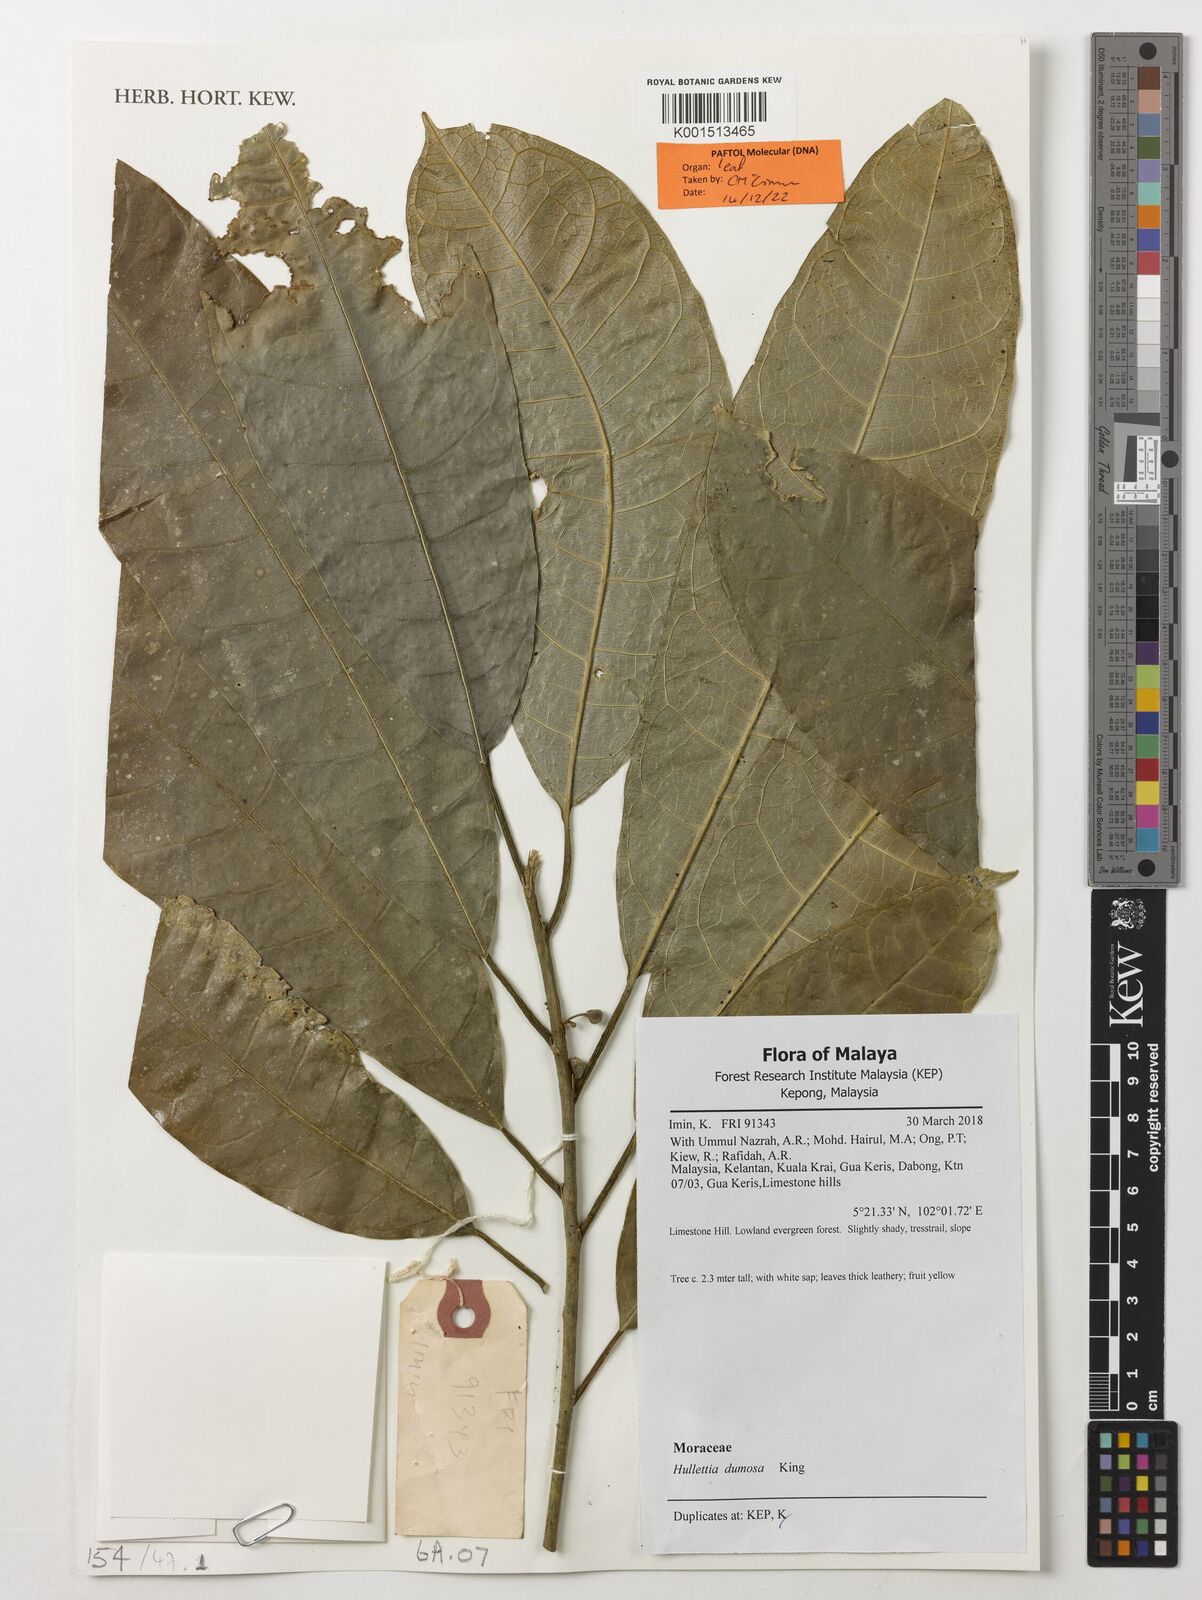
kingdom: Plantae
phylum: Tracheophyta
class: Magnoliopsida
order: Rosales
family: Moraceae
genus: Hullettia
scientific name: Hullettia dumosa
